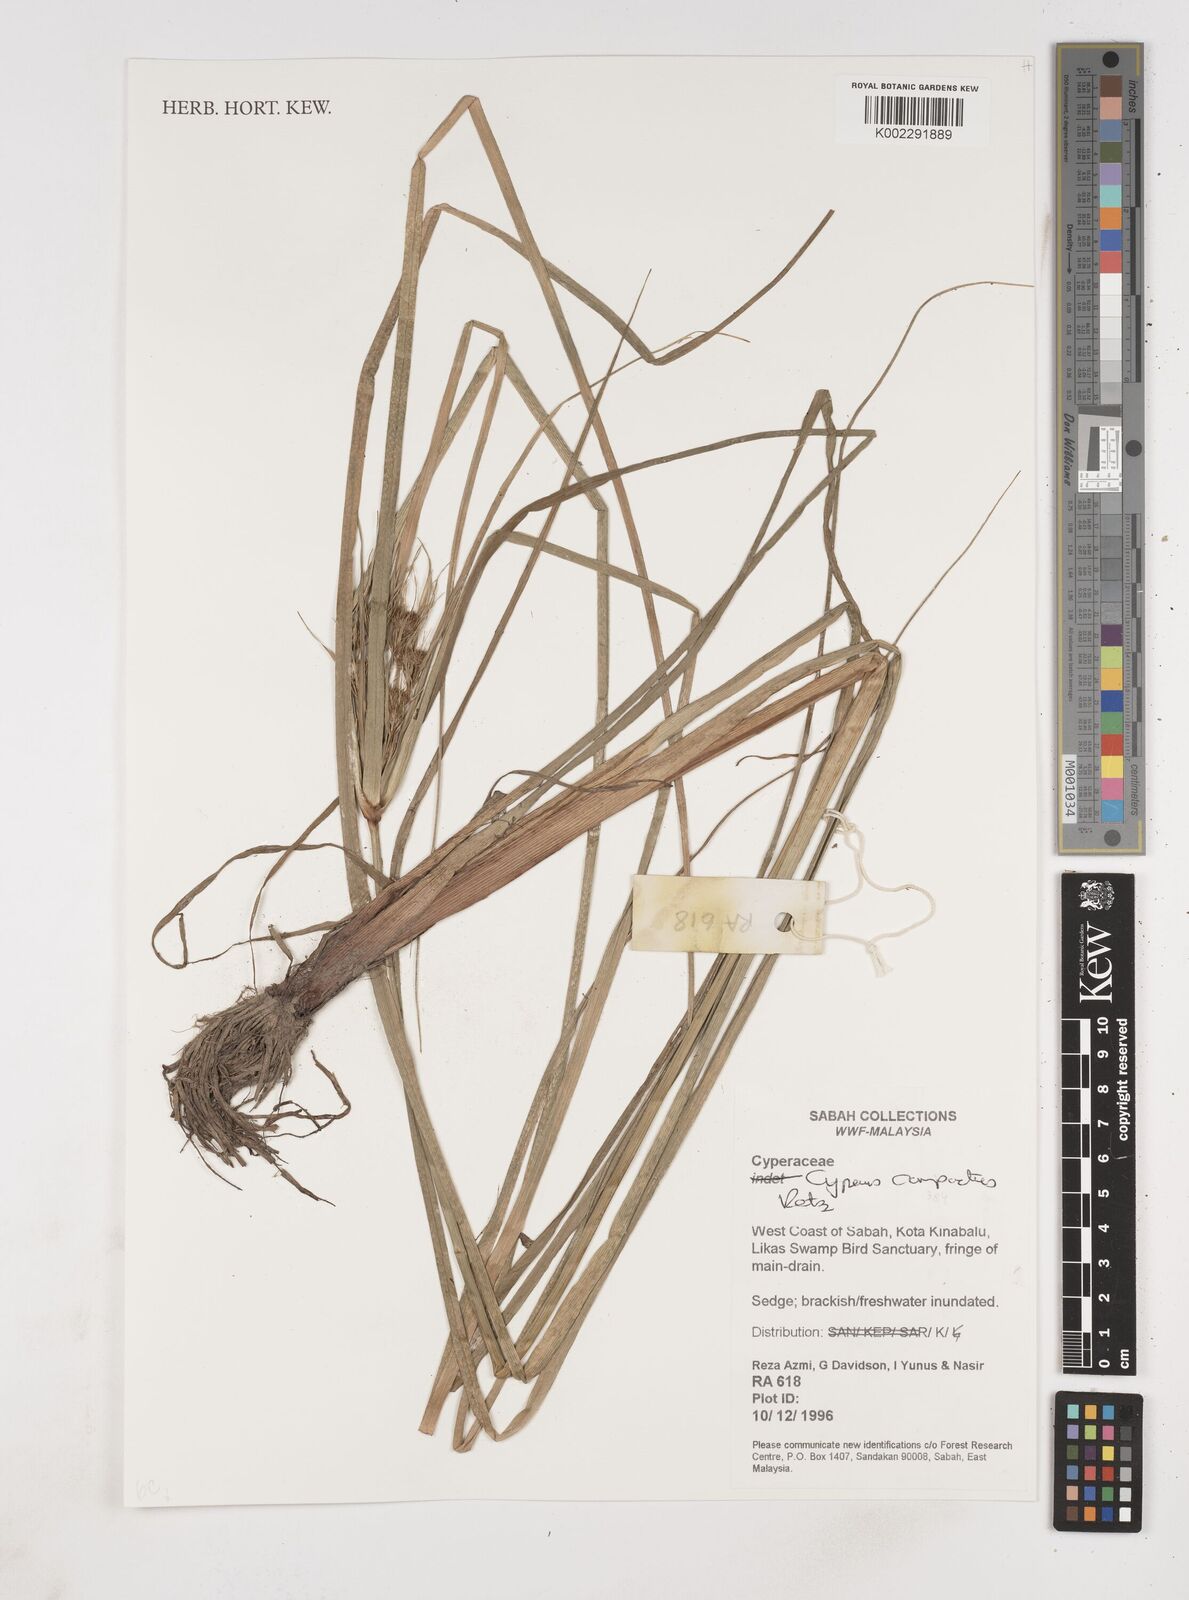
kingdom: Plantae
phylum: Tracheophyta
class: Liliopsida
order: Poales
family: Cyperaceae
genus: Cyperus
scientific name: Cyperus compactus
